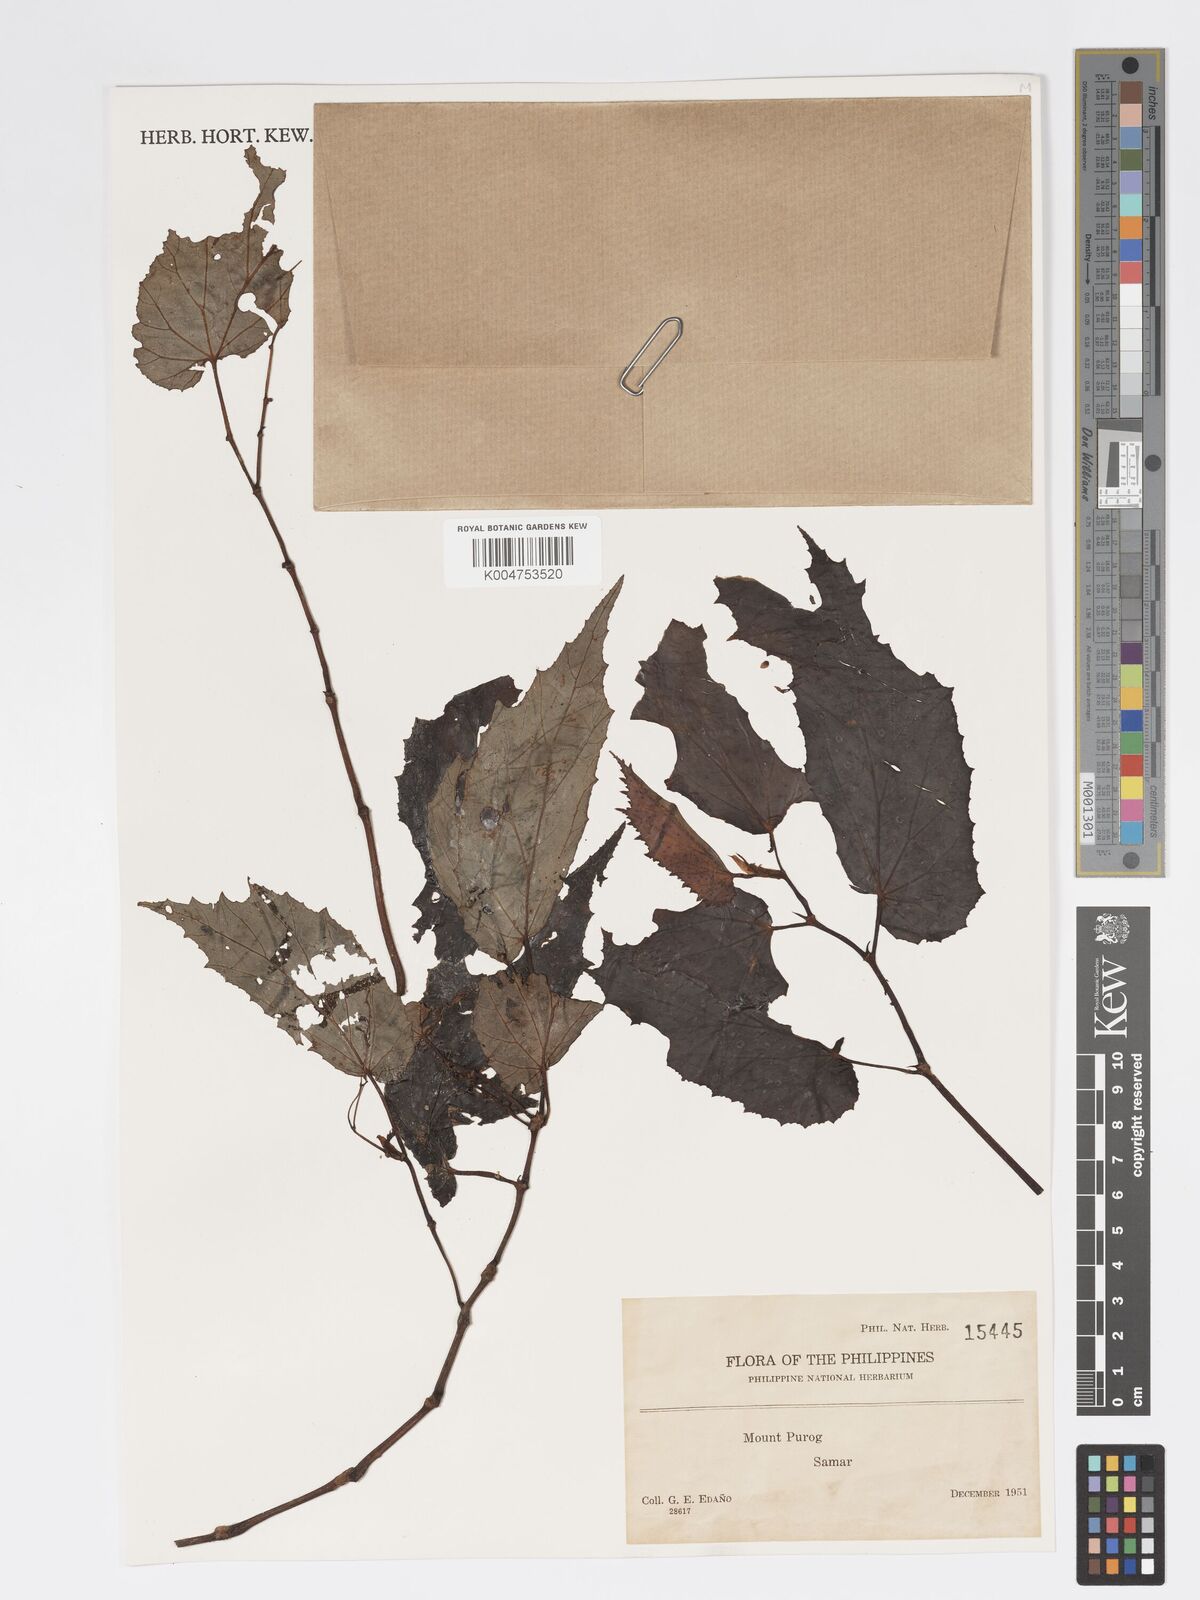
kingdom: Plantae
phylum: Tracheophyta
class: Magnoliopsida
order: Cucurbitales
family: Begoniaceae
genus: Begonia
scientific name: Begonia
